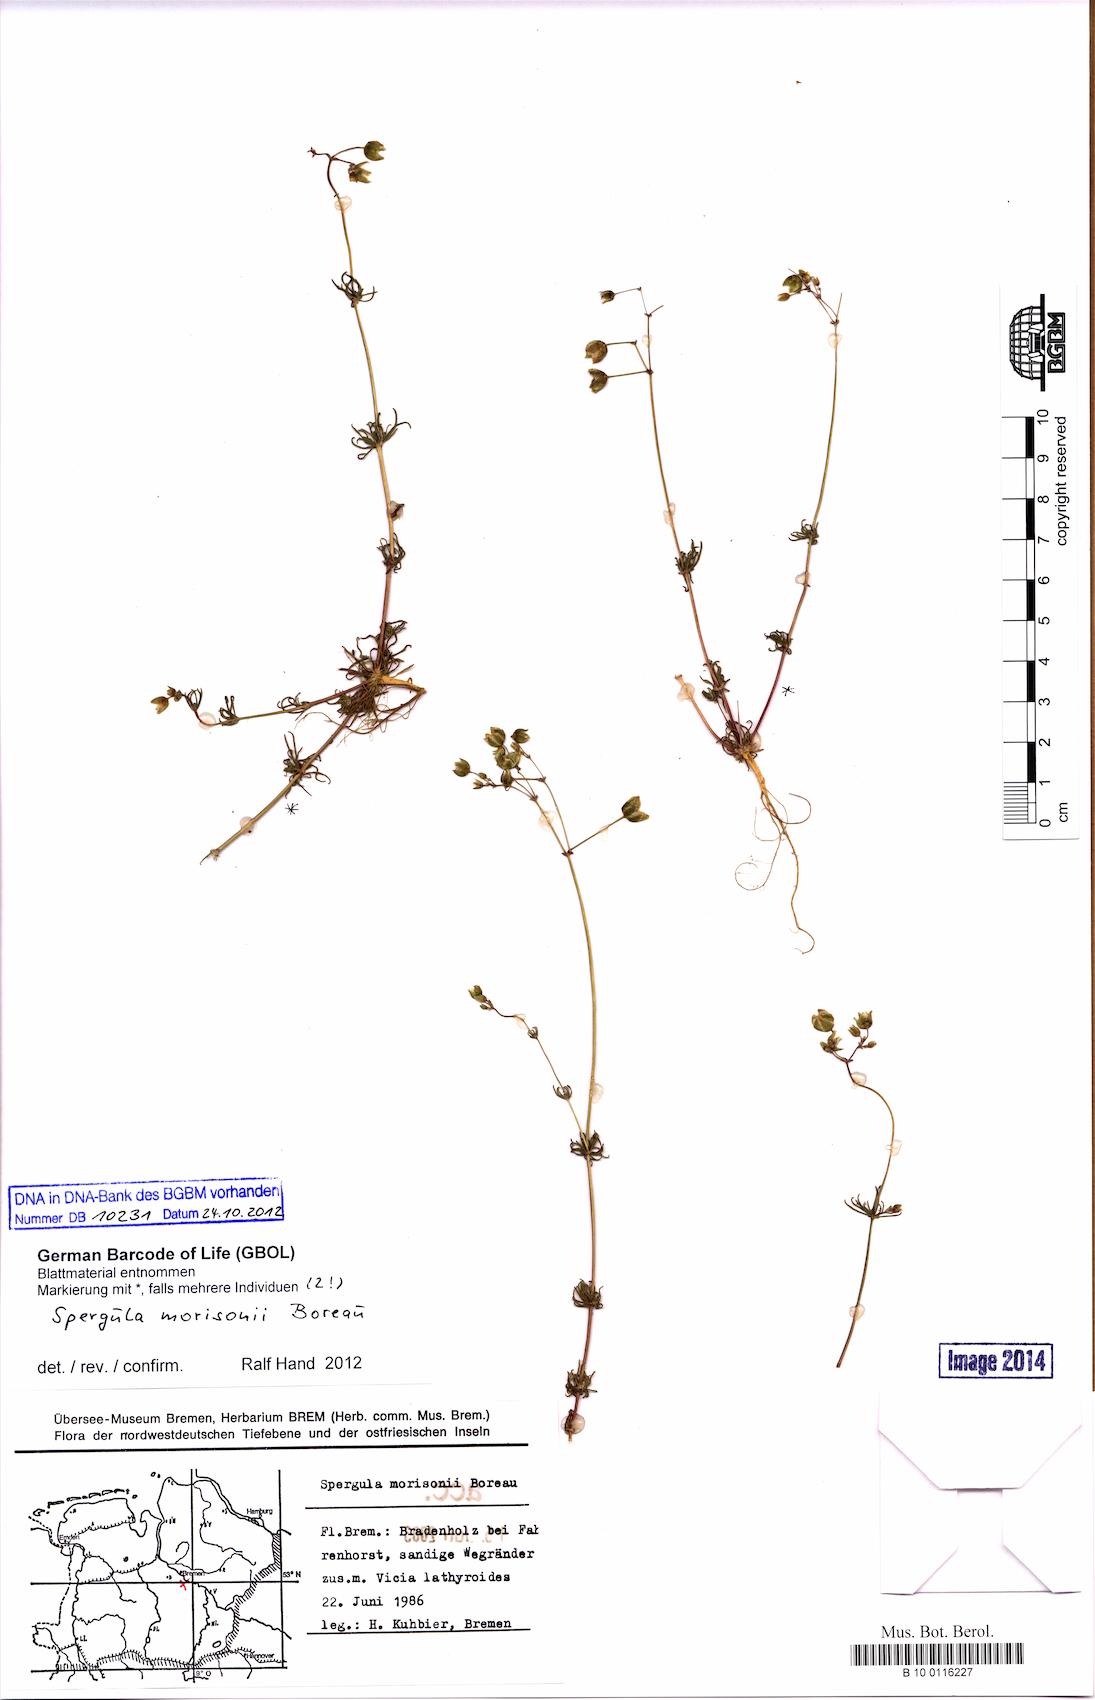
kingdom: Plantae
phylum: Tracheophyta
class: Magnoliopsida
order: Caryophyllales
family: Caryophyllaceae
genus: Spergula
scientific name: Spergula morisonii
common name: Pearlwort spurrey
